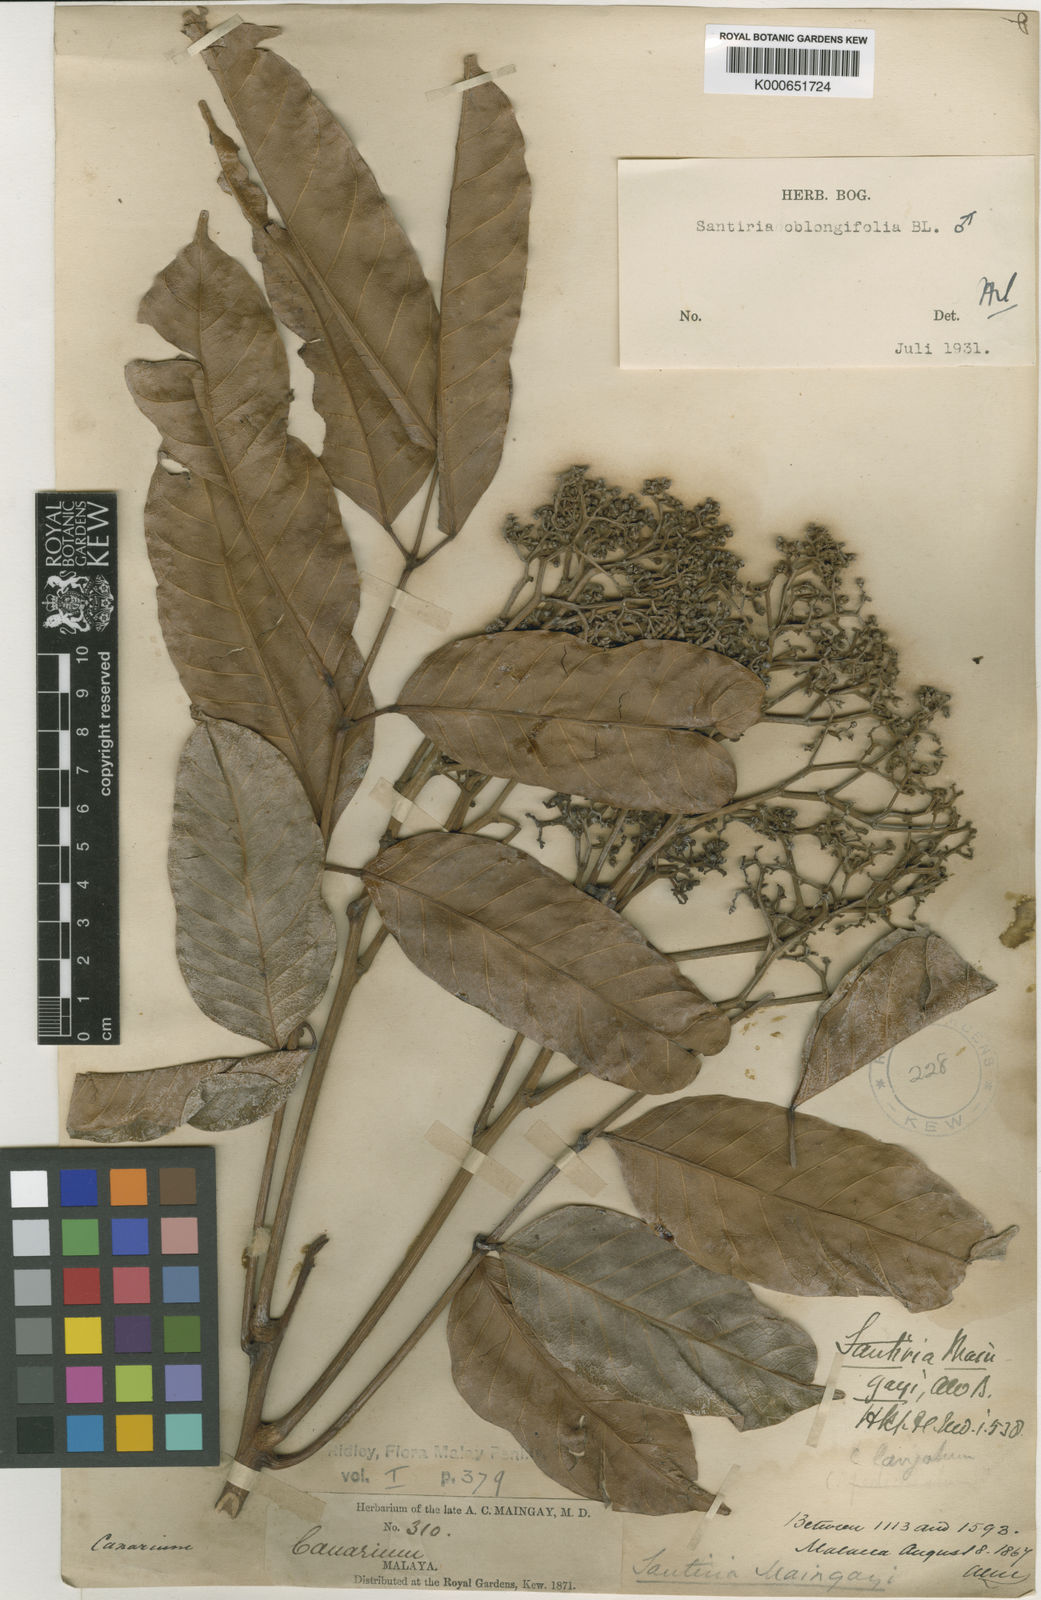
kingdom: Plantae
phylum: Tracheophyta
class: Magnoliopsida
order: Sapindales
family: Burseraceae
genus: Santiria
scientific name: Santiria oblongifolia
